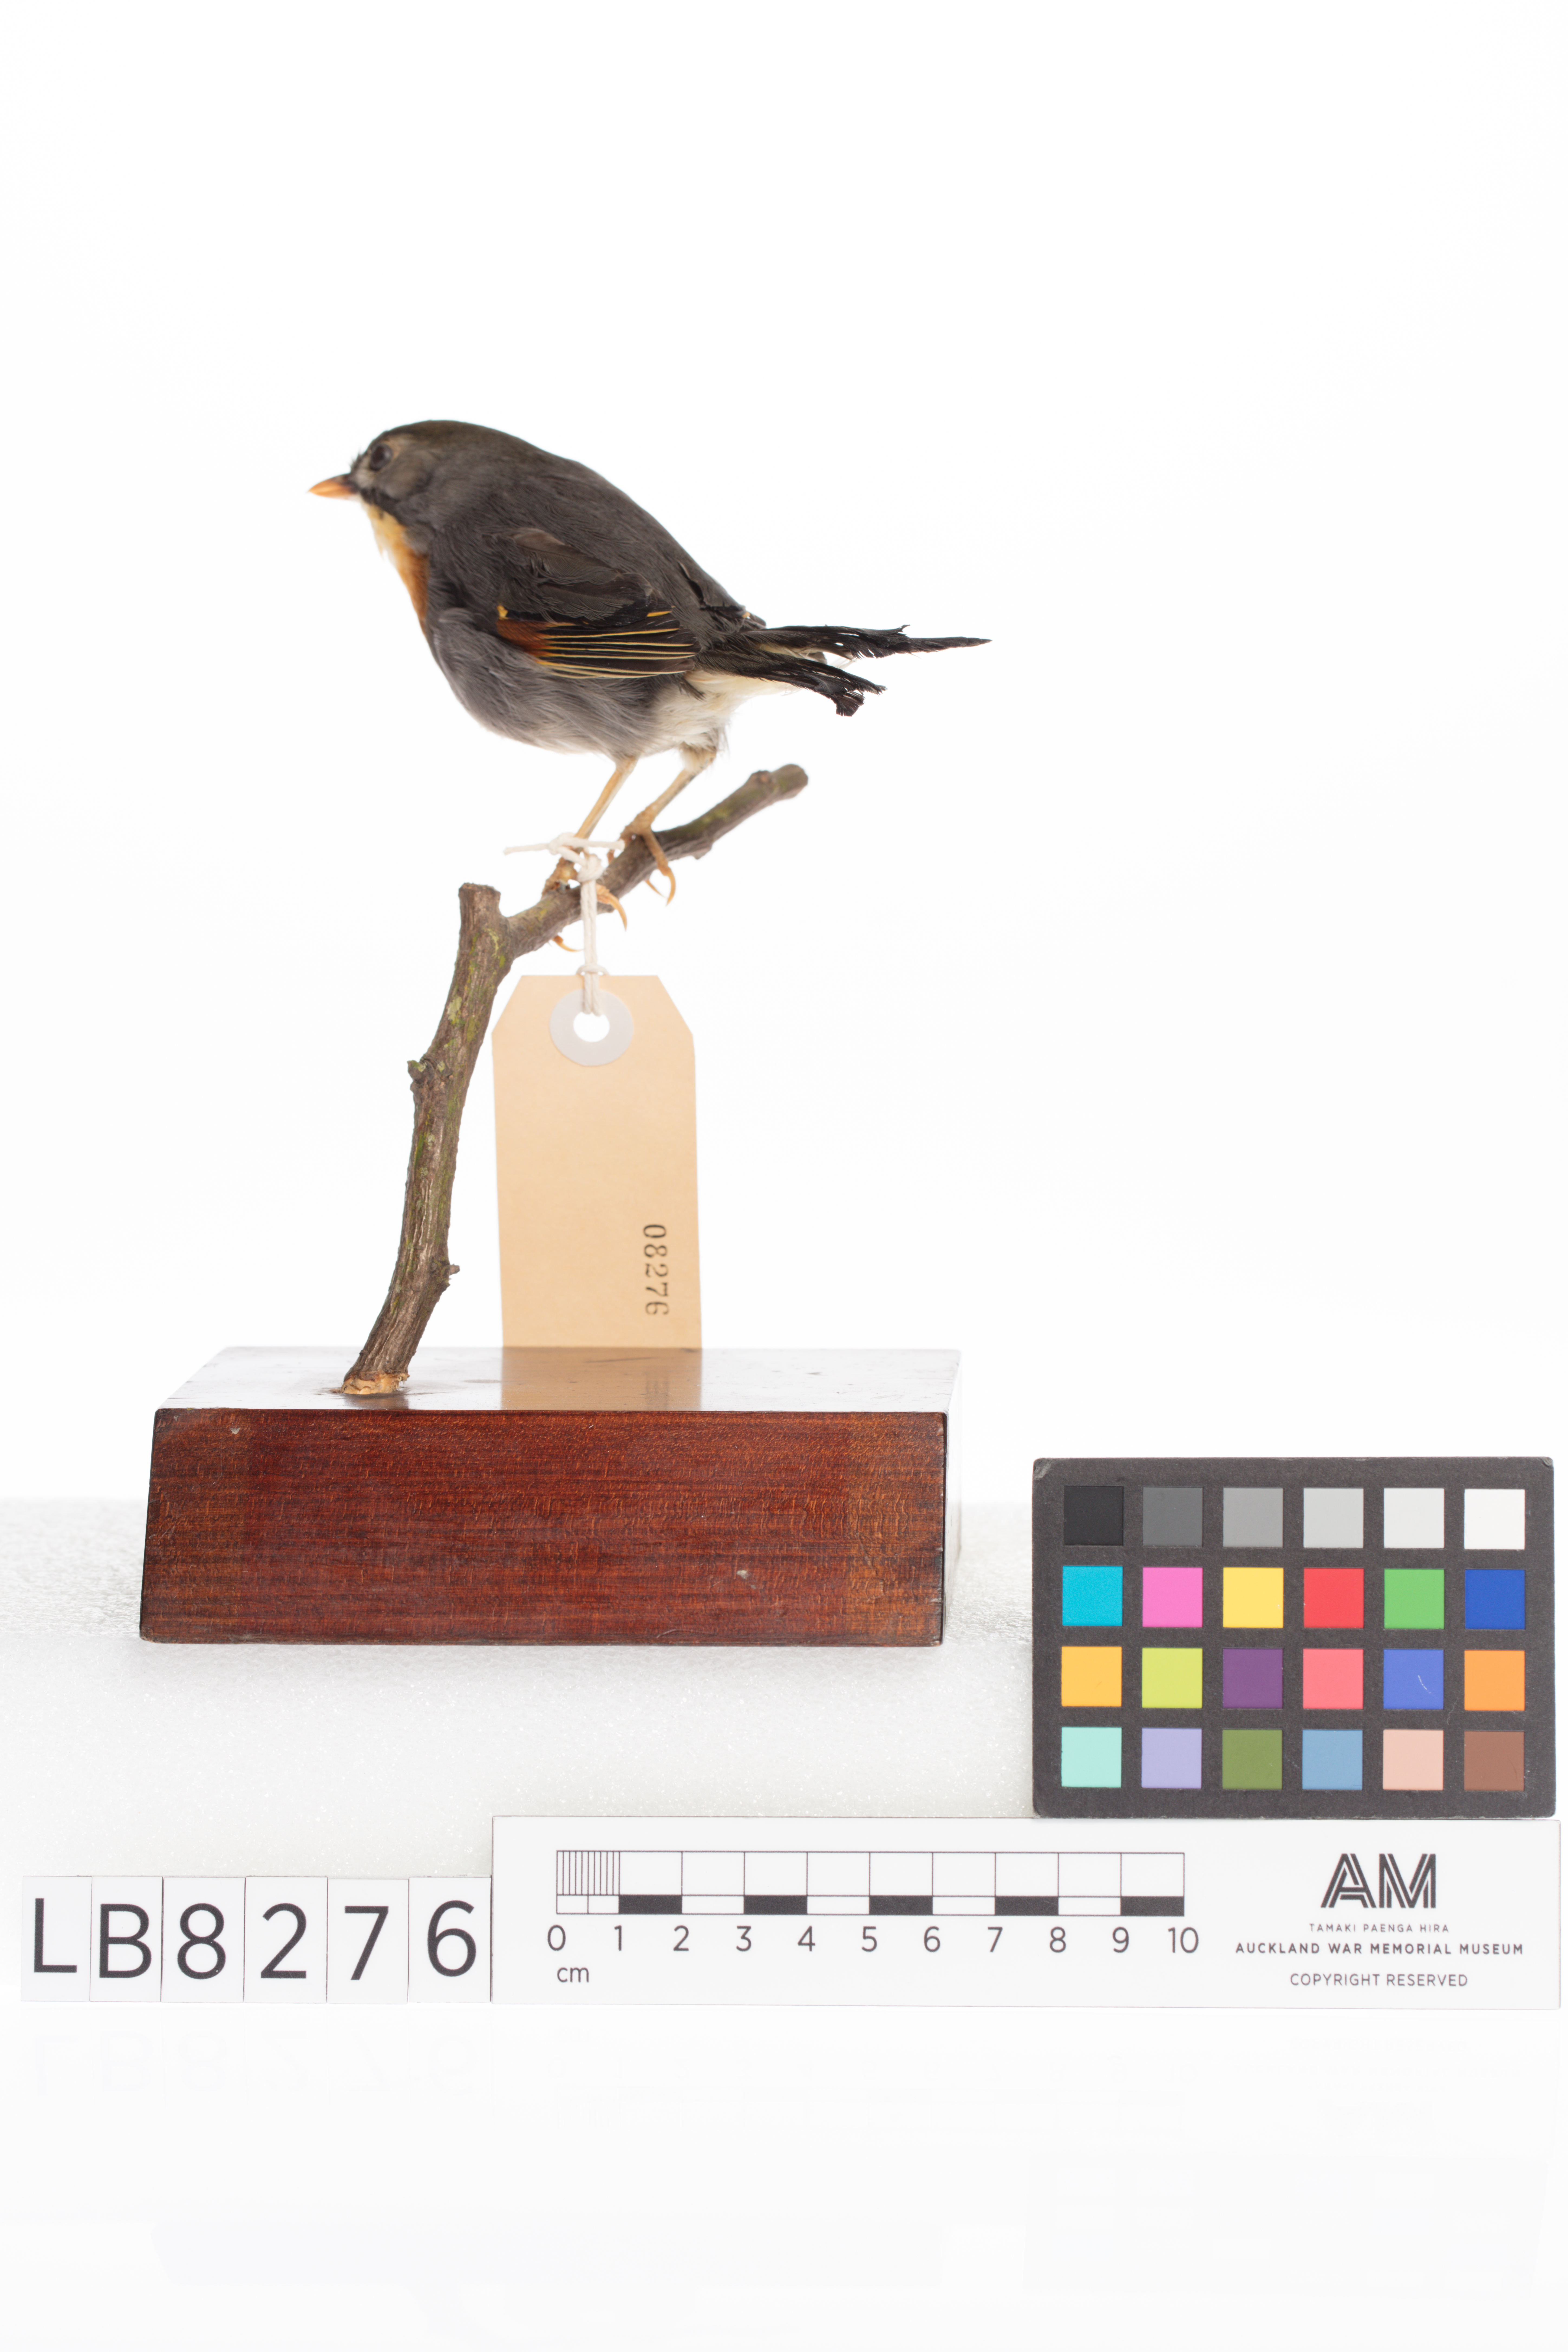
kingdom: Animalia
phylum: Chordata
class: Aves
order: Passeriformes
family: Leiothrichidae
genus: Leiothrix
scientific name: Leiothrix
